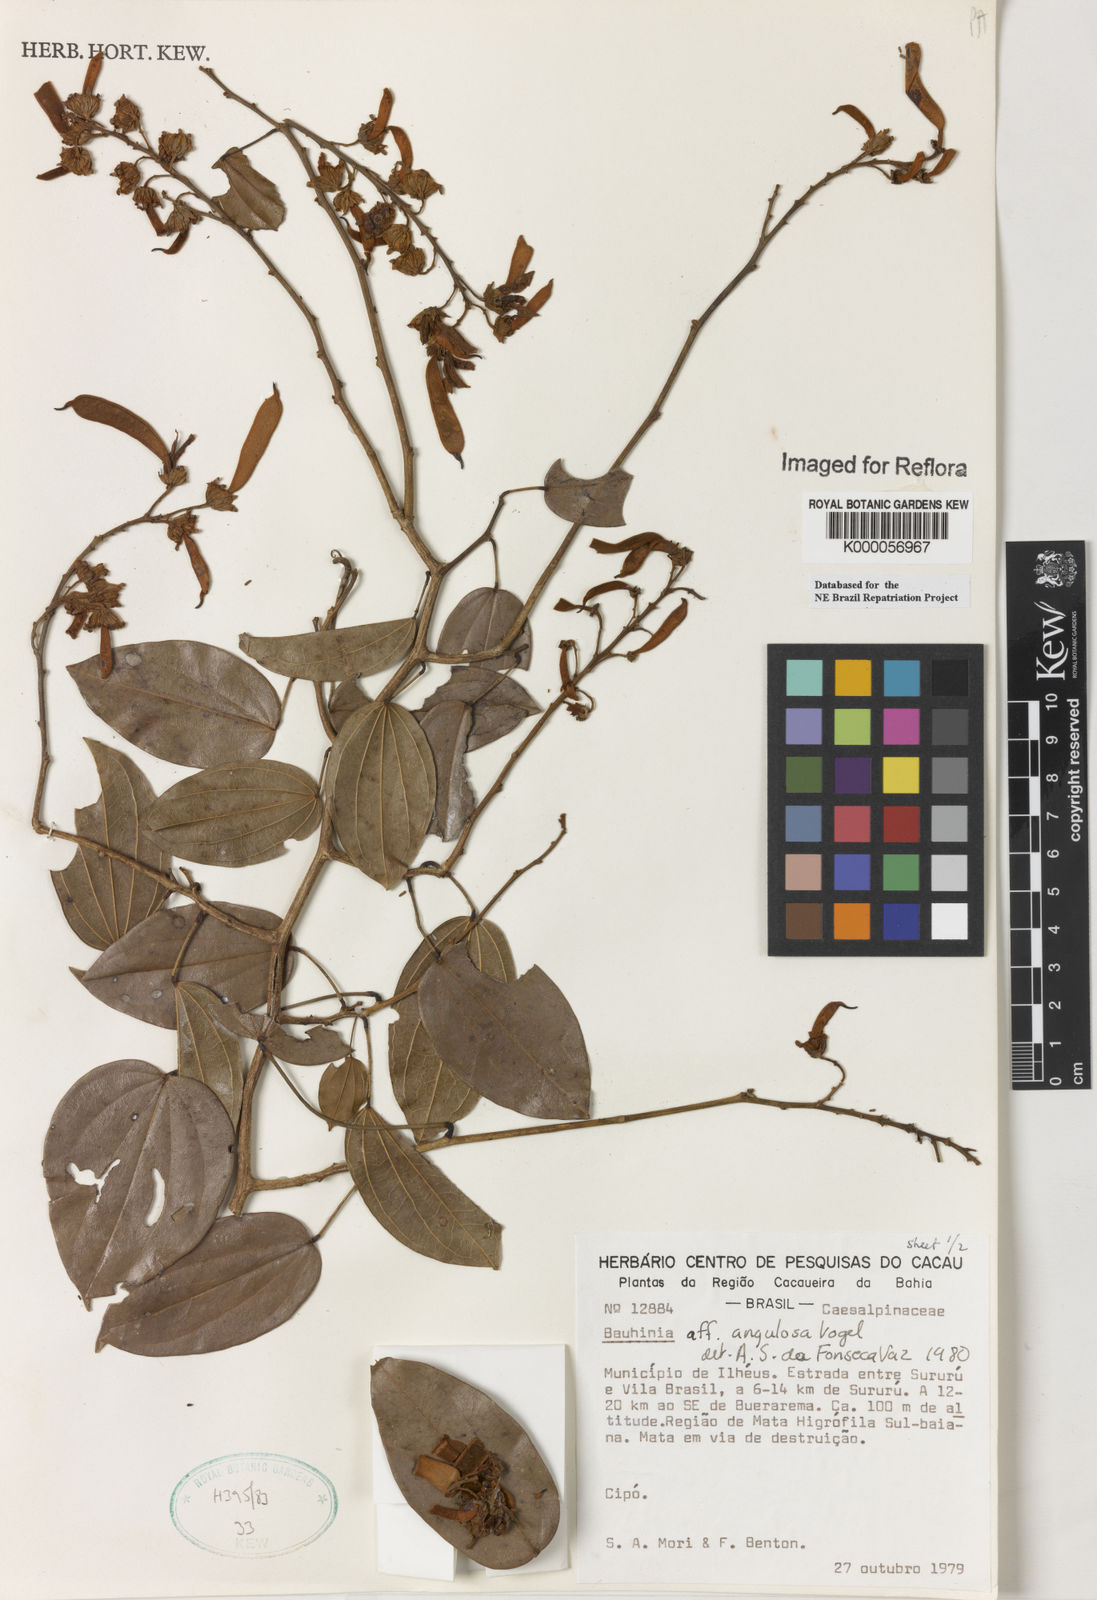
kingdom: Plantae
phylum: Tracheophyta
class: Magnoliopsida
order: Fabales
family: Fabaceae
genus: Schnella
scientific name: Schnella angulosa
